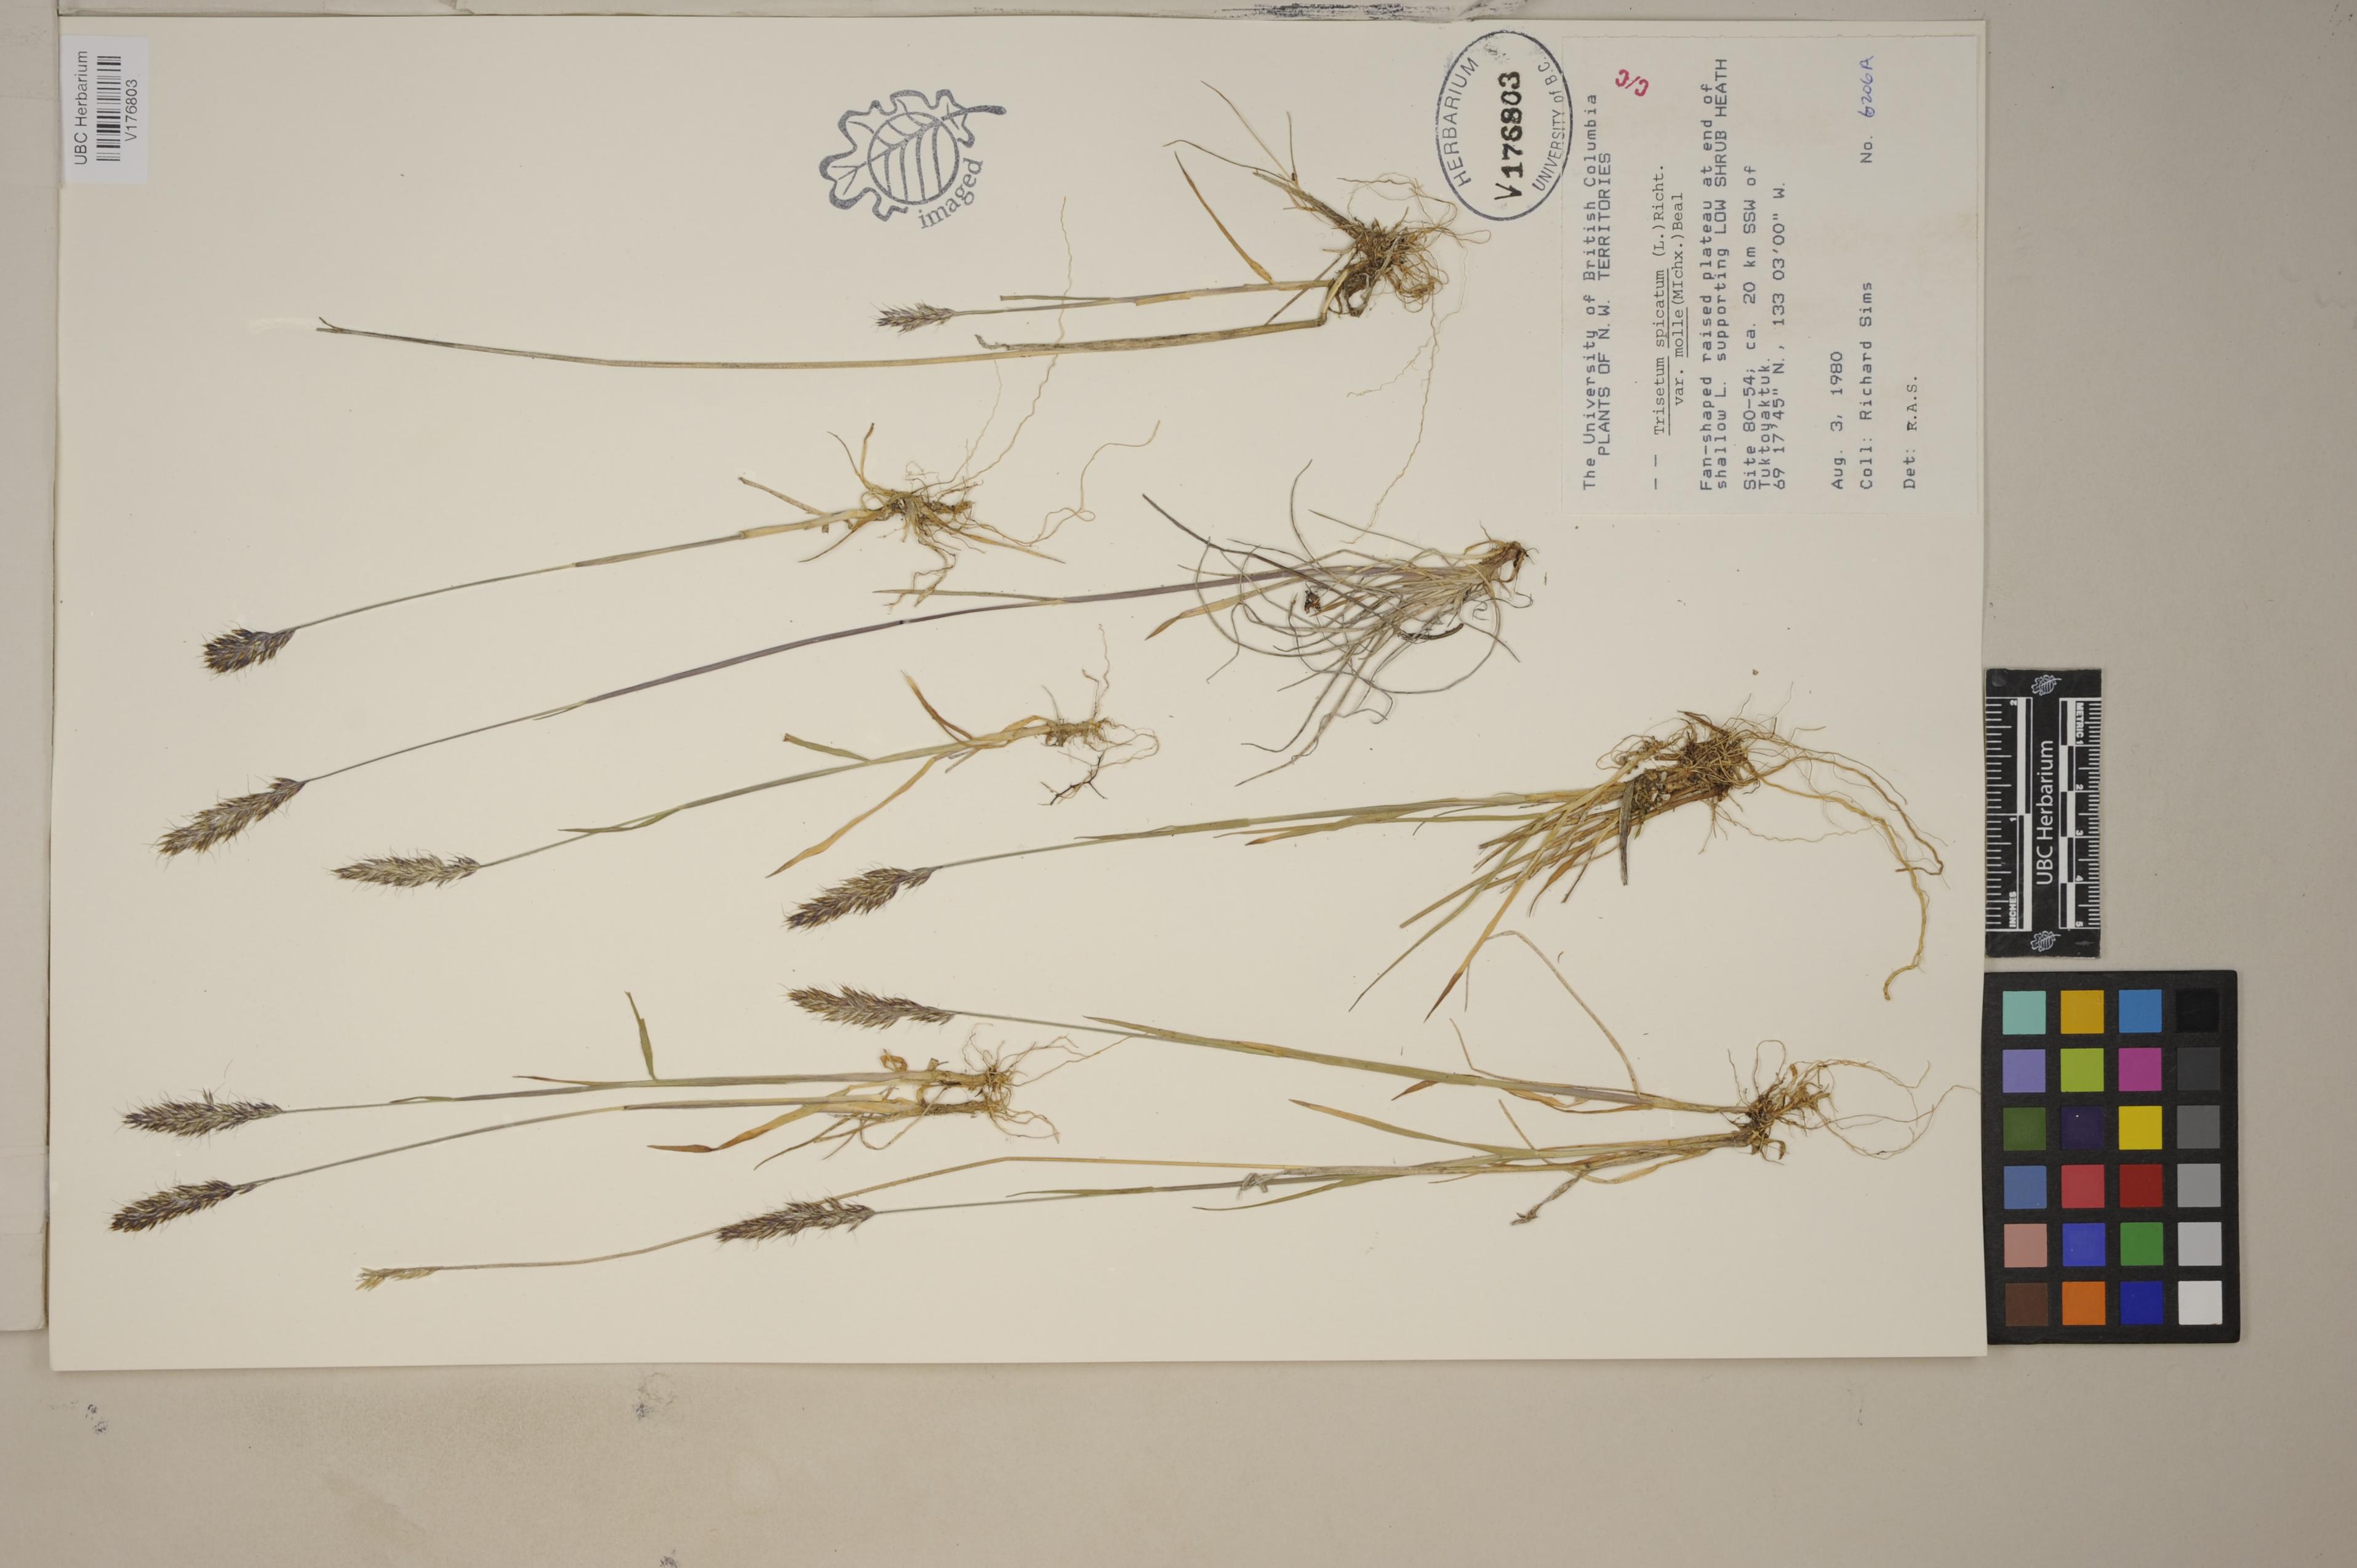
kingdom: Plantae
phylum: Tracheophyta
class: Liliopsida
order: Poales
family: Poaceae
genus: Koeleria
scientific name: Koeleria spicata
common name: Mountain trisetum
